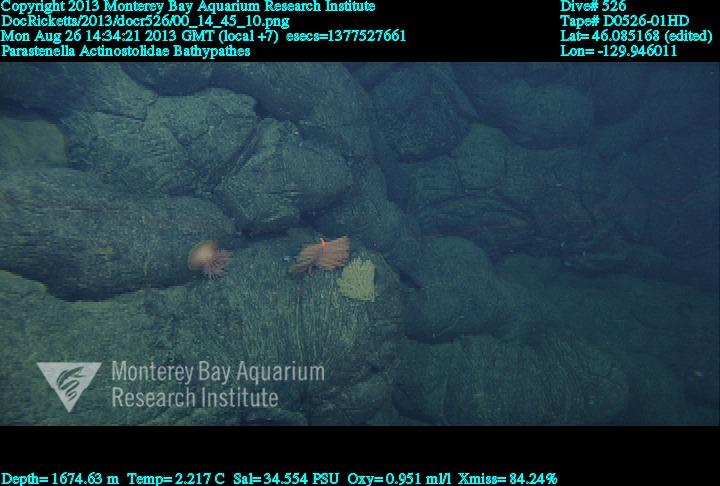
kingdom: Animalia
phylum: Cnidaria
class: Anthozoa
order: Antipatharia
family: Schizopathidae
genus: Bathypathes
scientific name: Bathypathes
